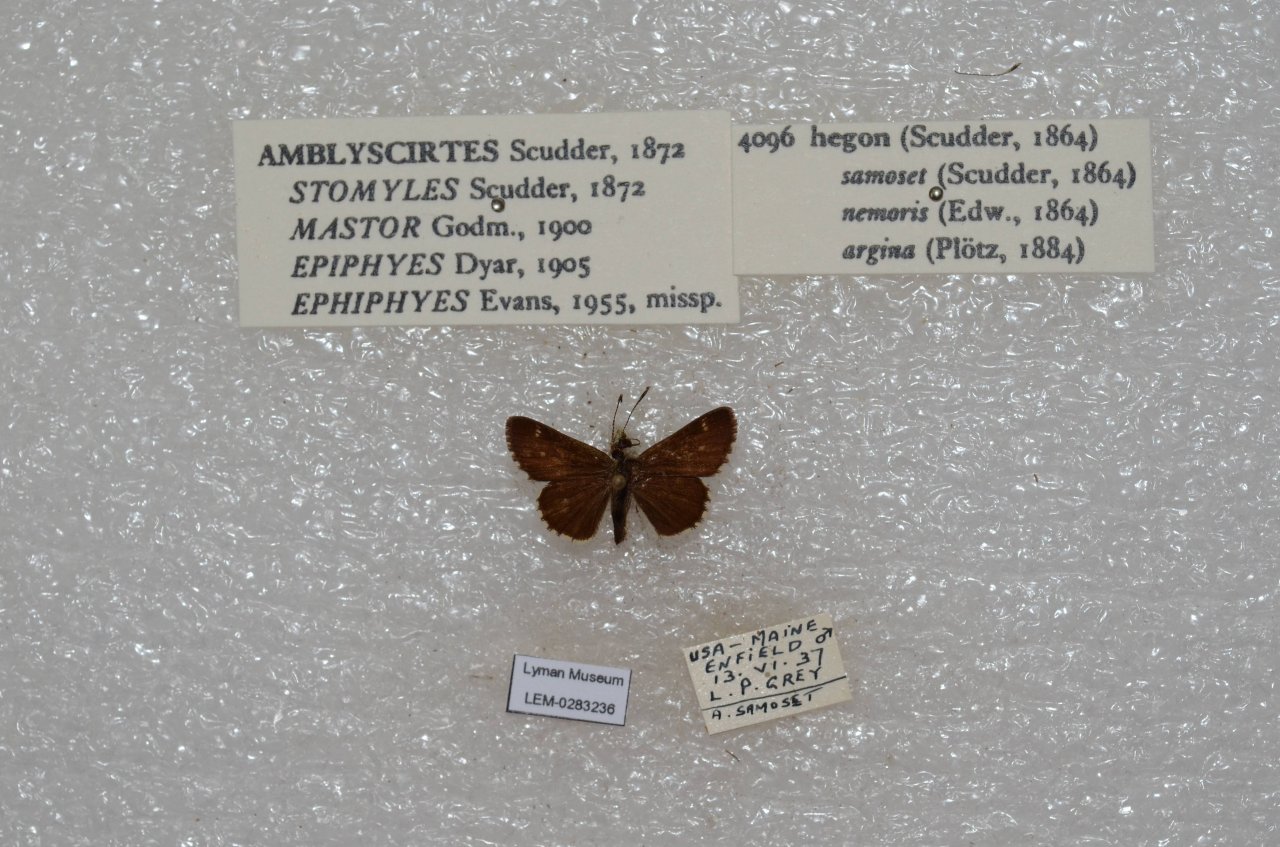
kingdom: Animalia
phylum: Arthropoda
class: Insecta
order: Lepidoptera
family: Hesperiidae
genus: Mastor
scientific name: Mastor hegon
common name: Pepper and Salt Skipper
